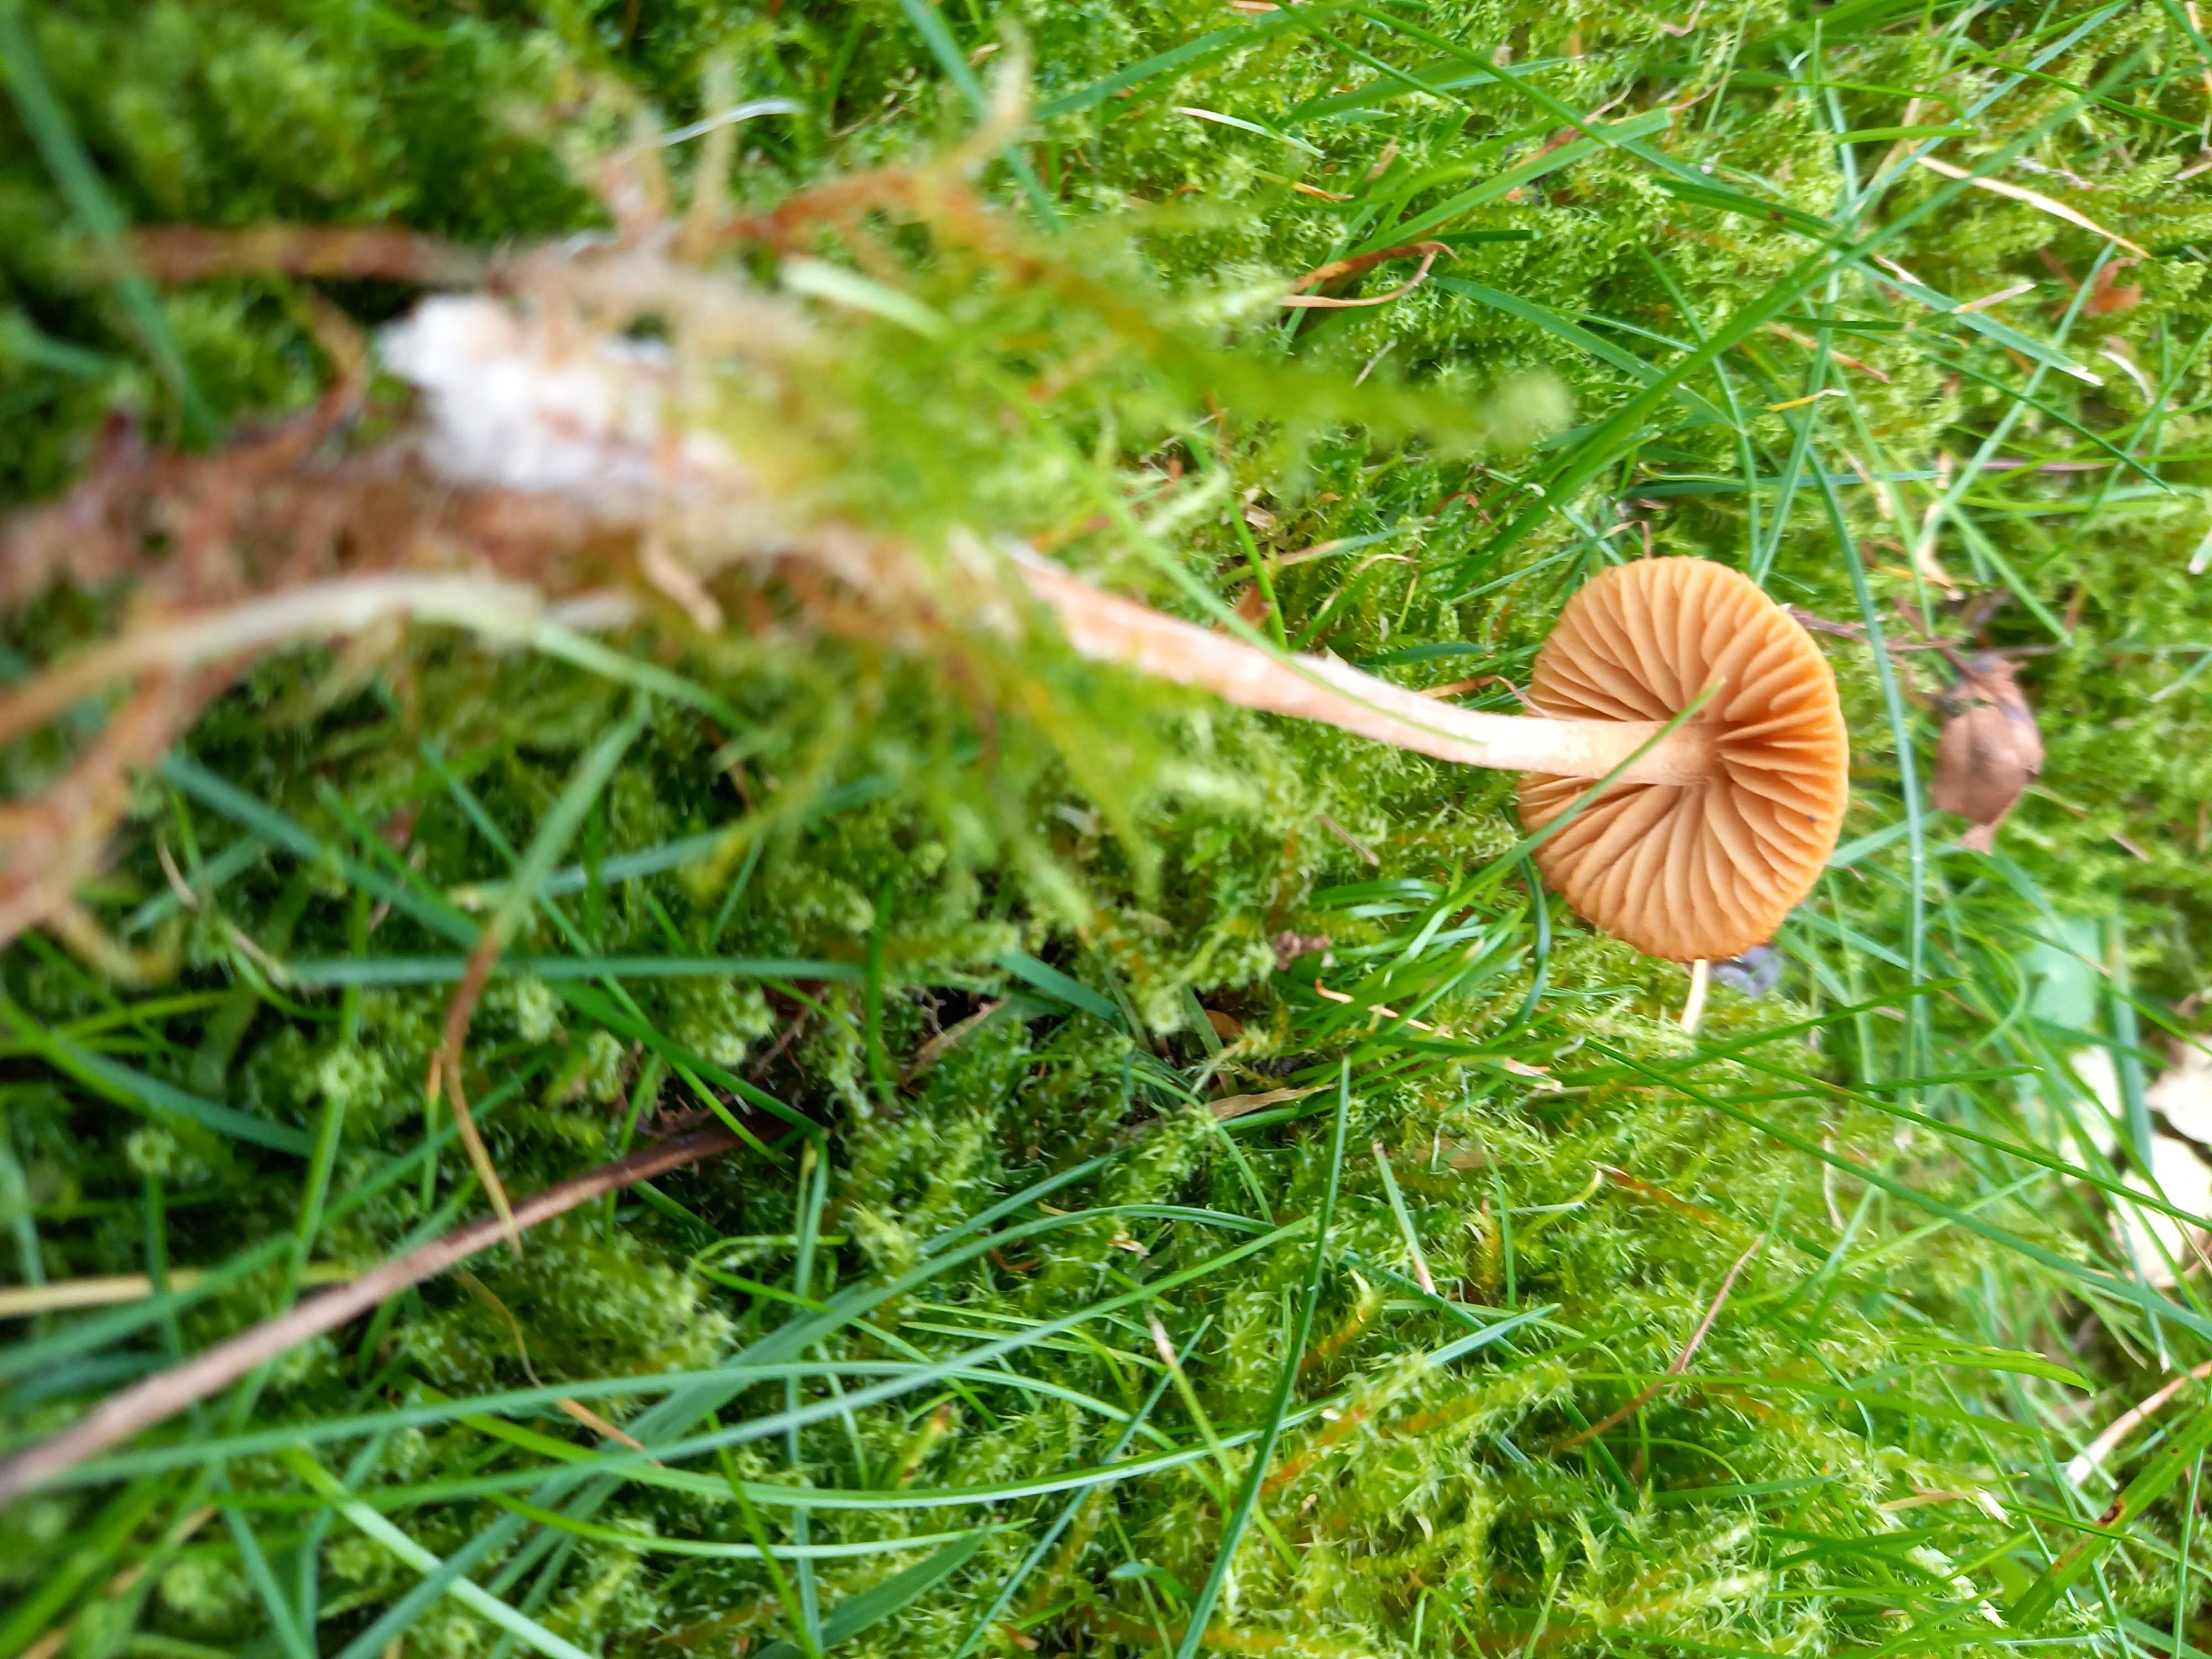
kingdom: Fungi
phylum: Basidiomycota
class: Agaricomycetes
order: Agaricales
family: Hymenogastraceae
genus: Galerina
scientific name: Galerina
